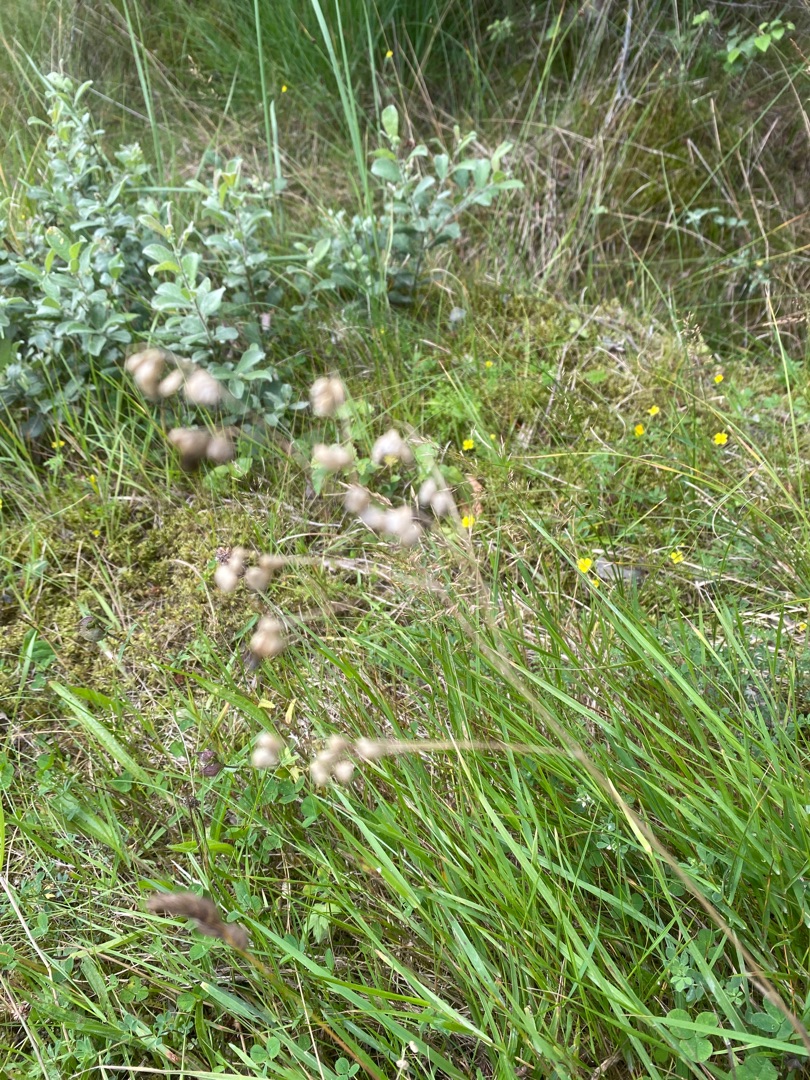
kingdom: Plantae
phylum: Tracheophyta
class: Liliopsida
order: Poales
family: Poaceae
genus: Briza
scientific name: Briza media
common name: Hjertegræs
